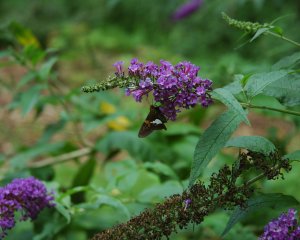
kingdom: Animalia
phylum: Arthropoda
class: Insecta
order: Lepidoptera
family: Hesperiidae
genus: Epargyreus
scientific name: Epargyreus clarus
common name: Silver-spotted Skipper
